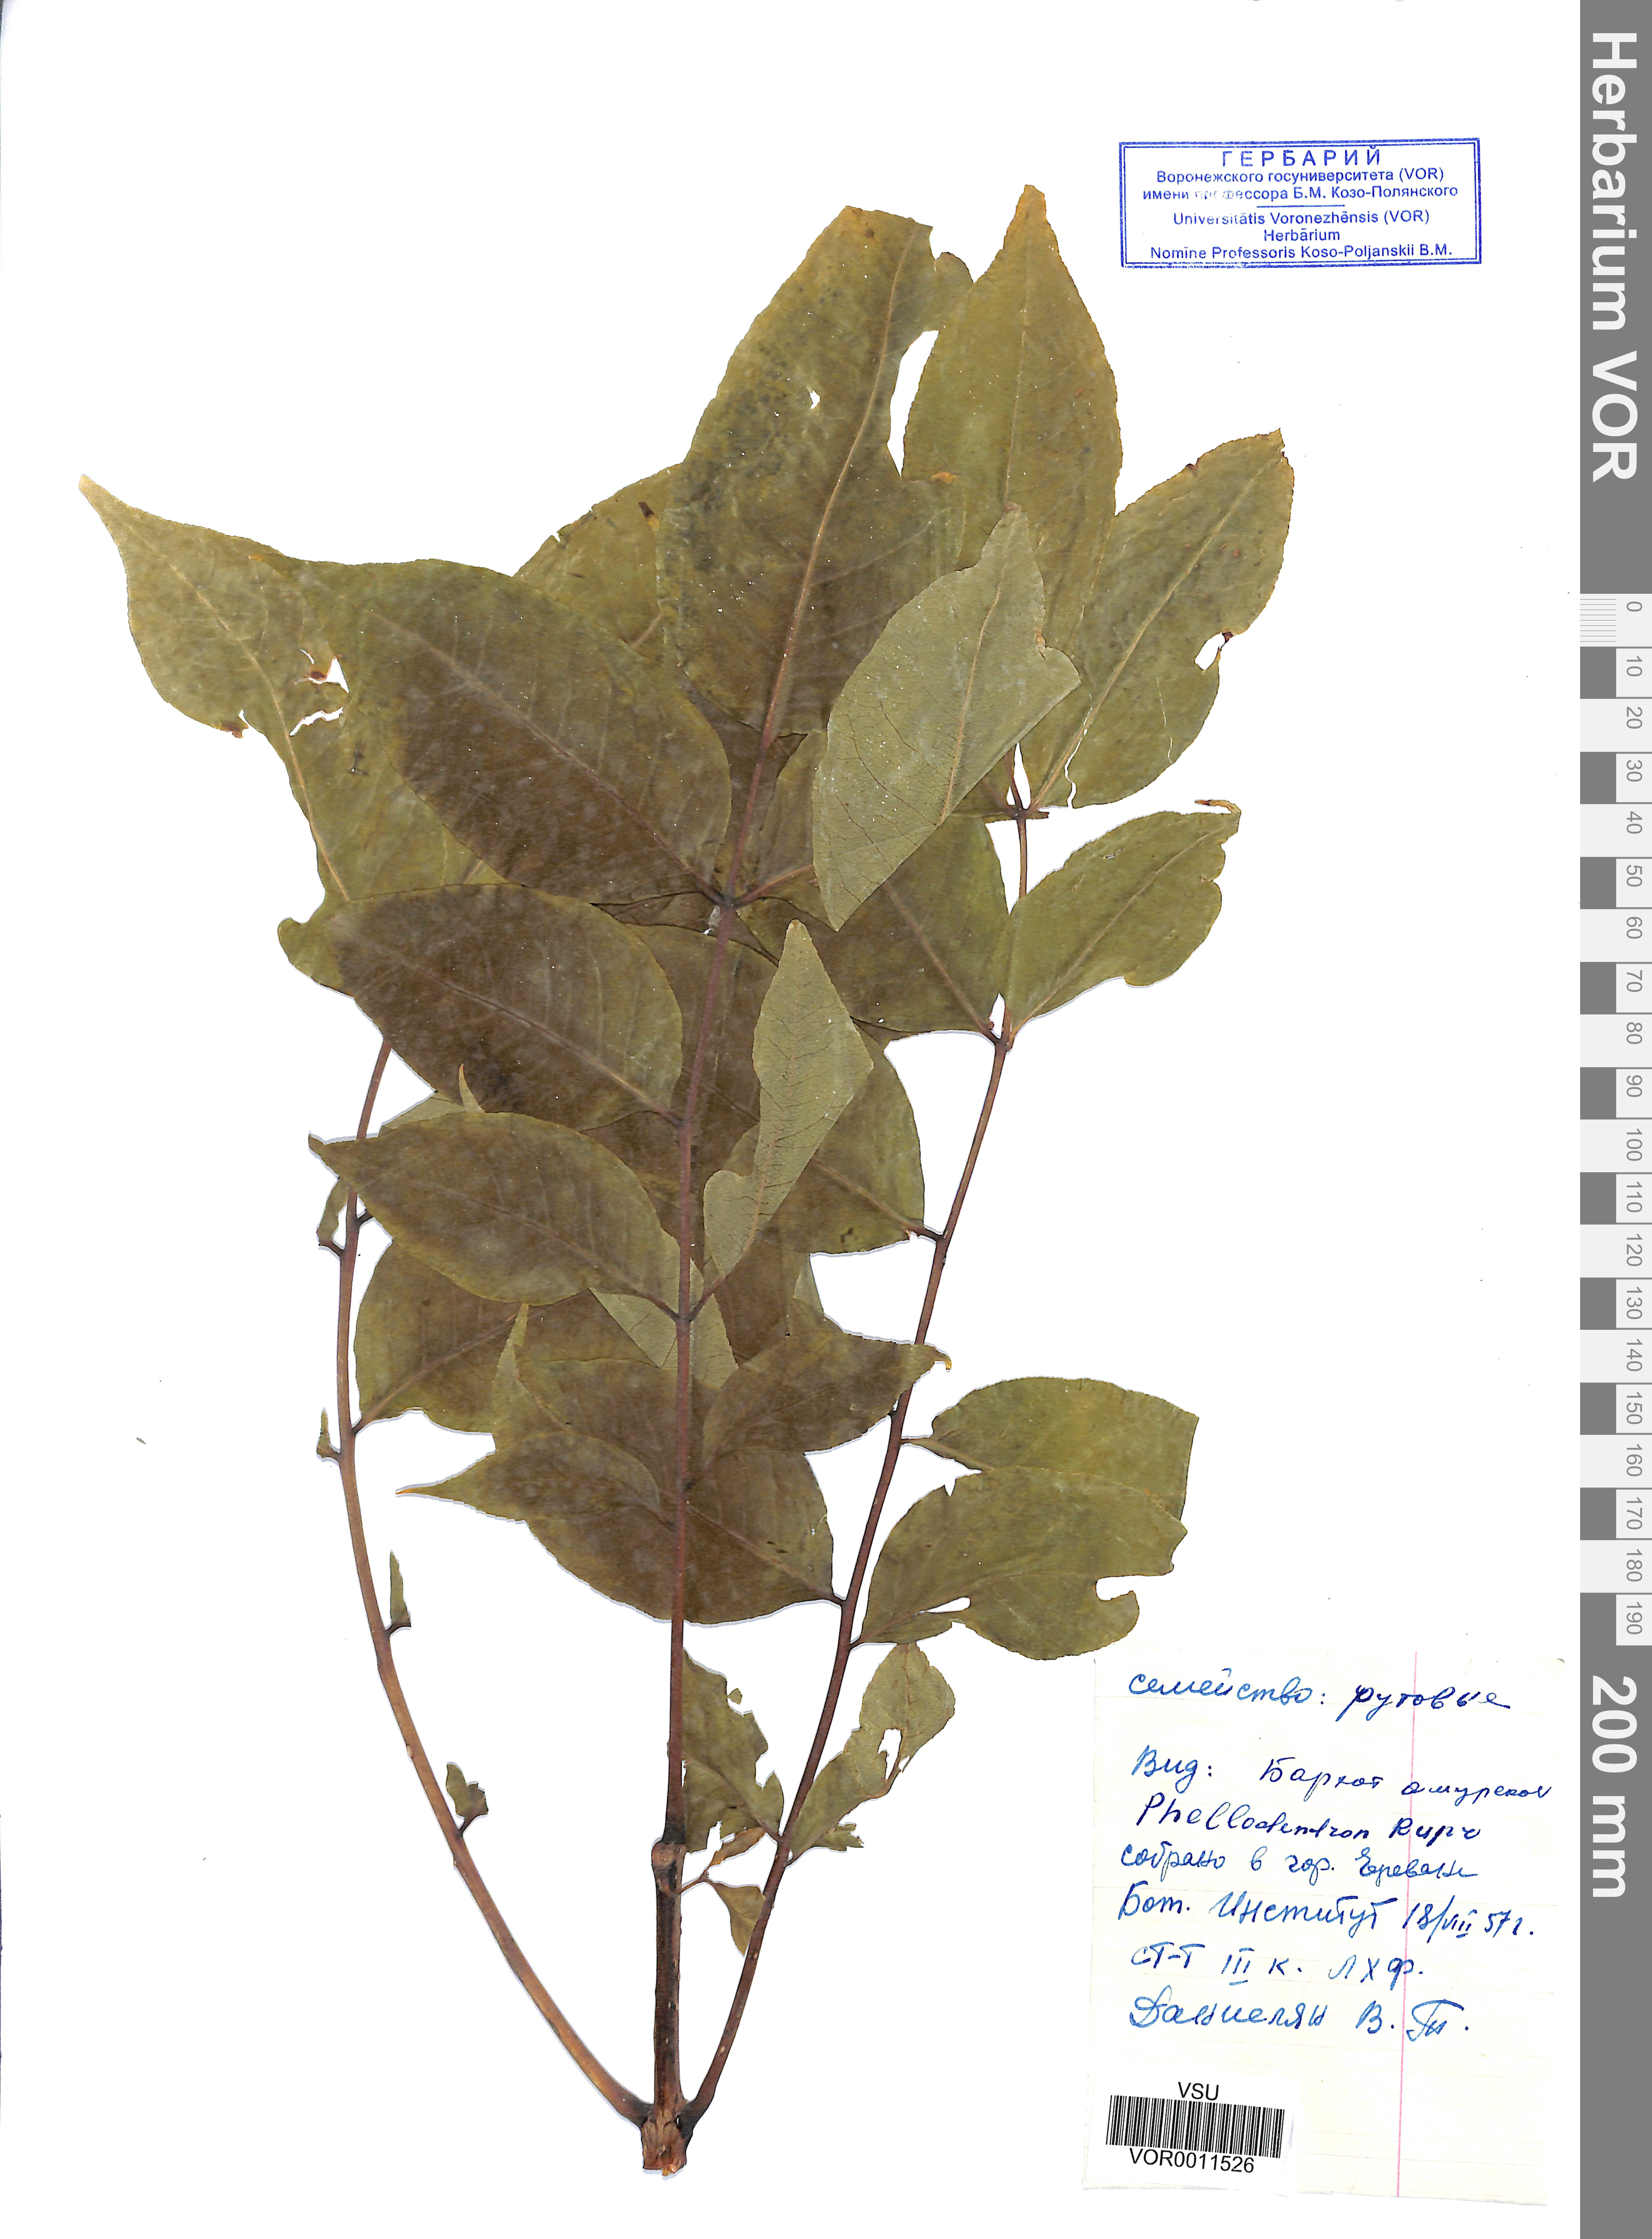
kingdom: Plantae
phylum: Tracheophyta
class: Magnoliopsida
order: Sapindales
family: Rutaceae
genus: Phellodendron
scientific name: Phellodendron amurense
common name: Amur corktree
